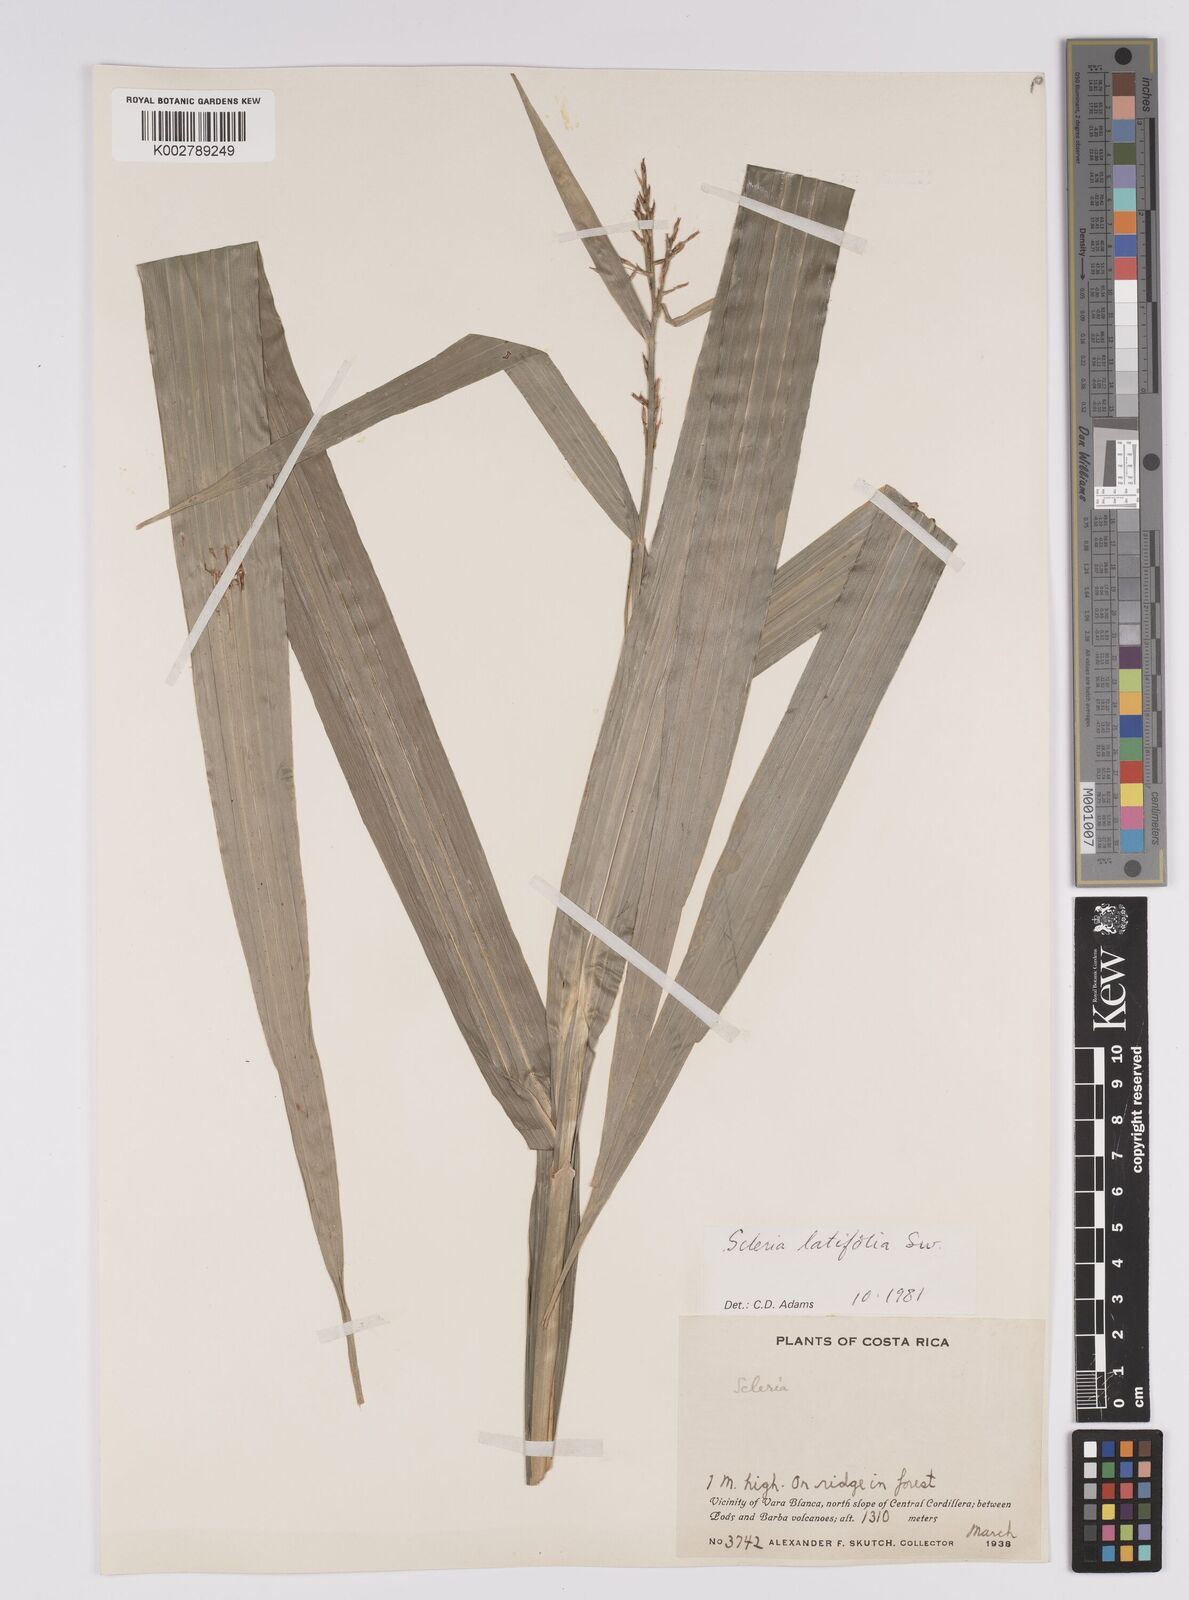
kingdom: Plantae
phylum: Tracheophyta
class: Liliopsida
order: Poales
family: Cyperaceae
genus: Scleria
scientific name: Scleria latifolia
